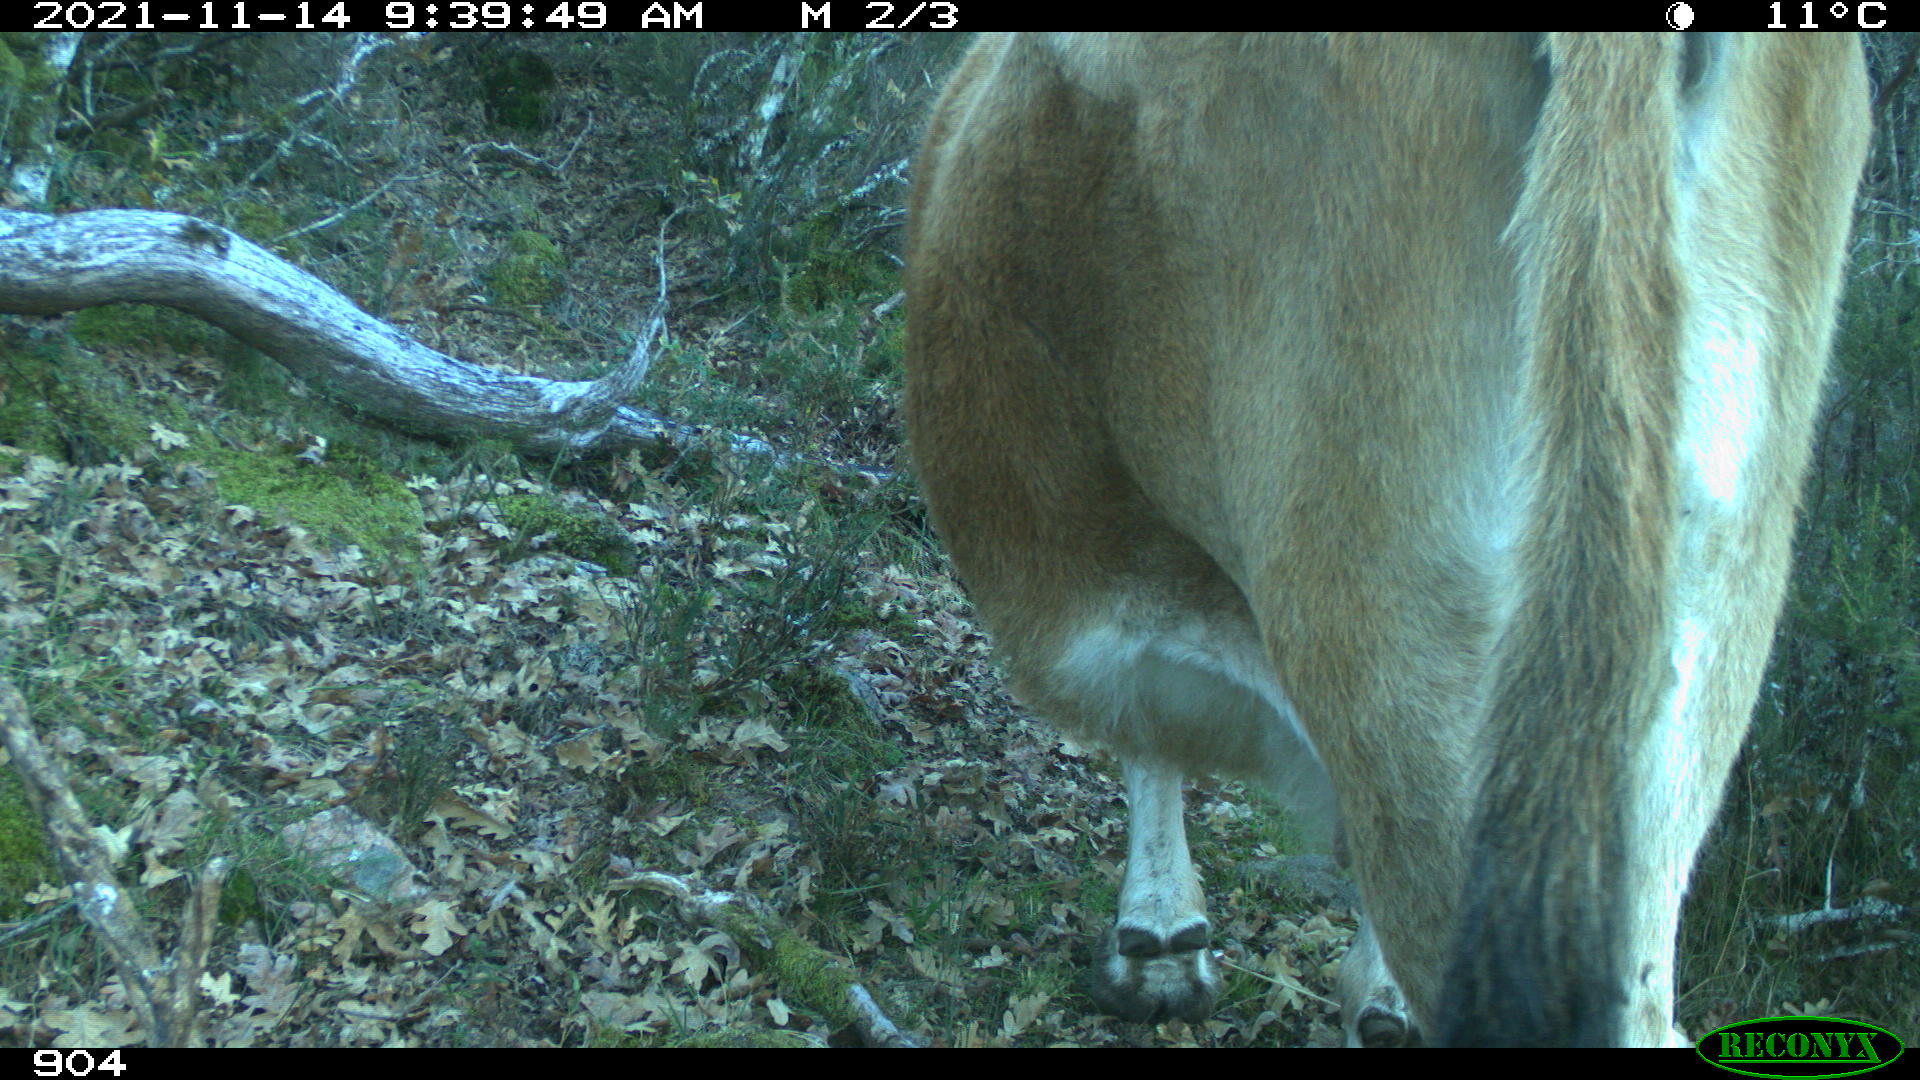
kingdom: Animalia
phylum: Chordata
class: Mammalia
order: Artiodactyla
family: Bovidae
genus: Bos
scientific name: Bos taurus
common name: Domesticated cattle
